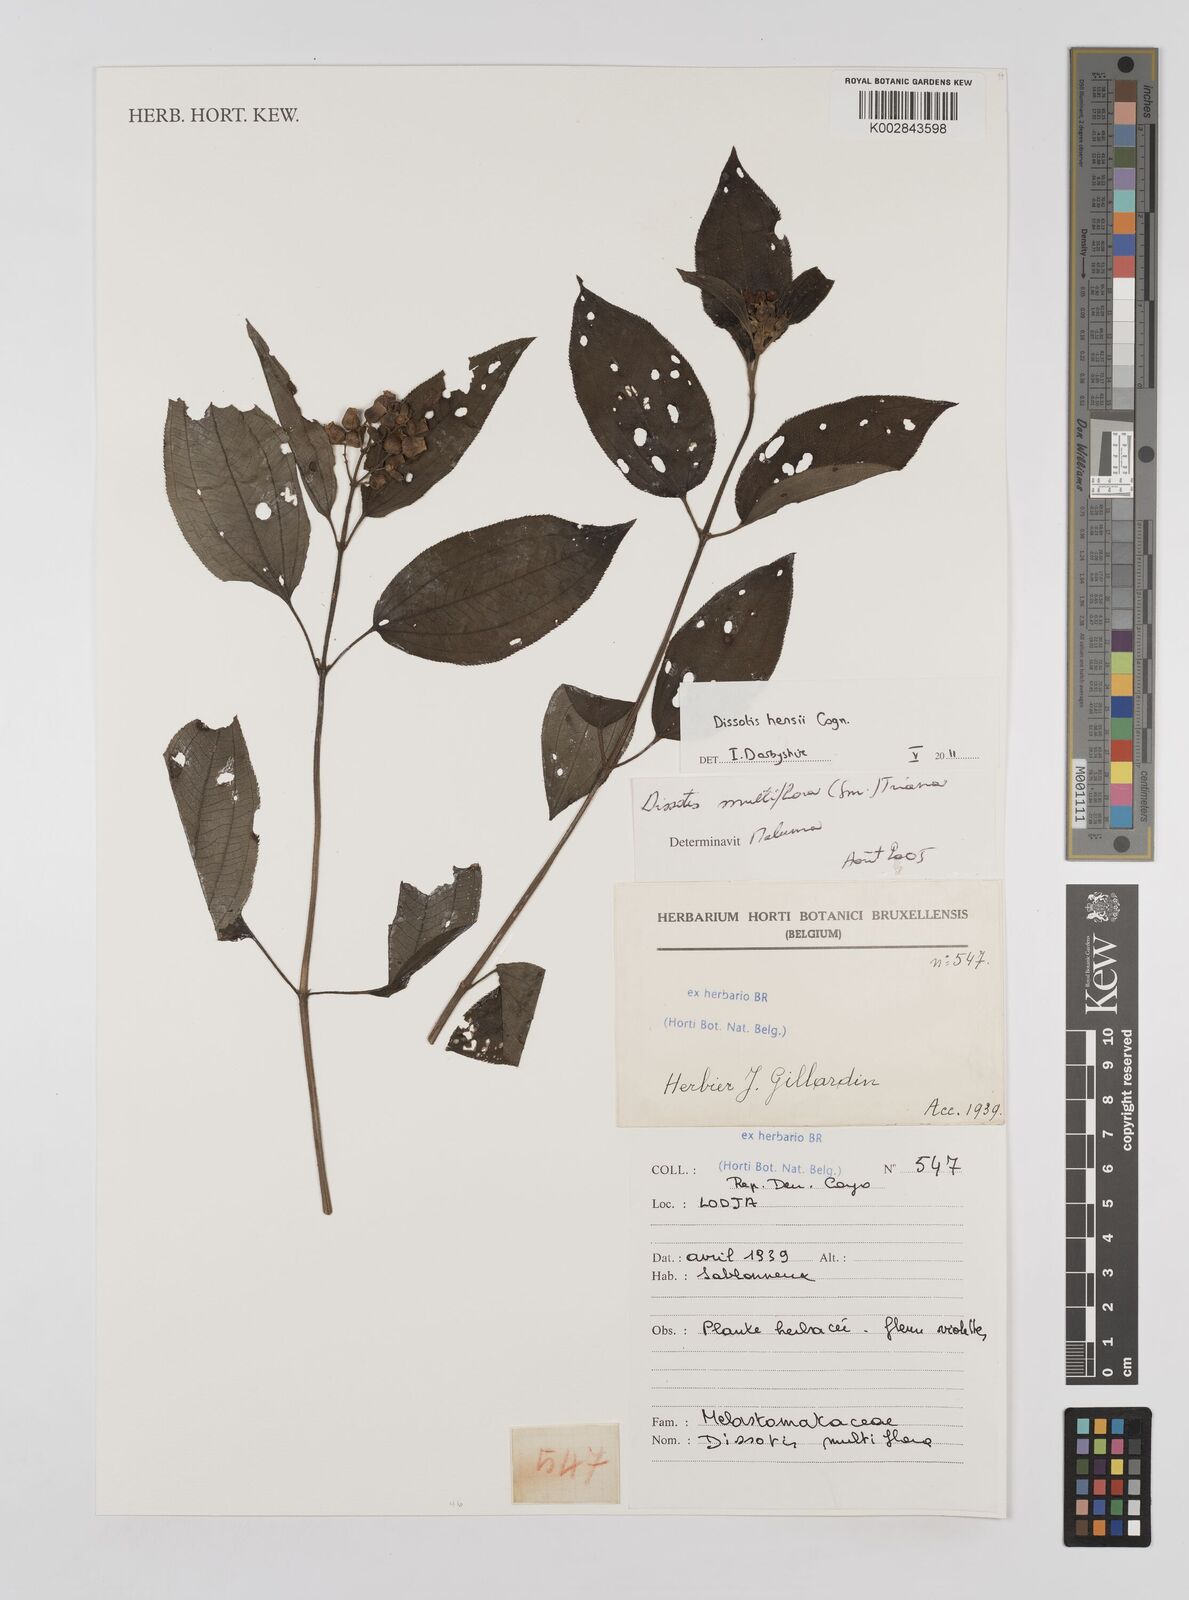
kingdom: Plantae
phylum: Tracheophyta
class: Magnoliopsida
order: Myrtales
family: Melastomataceae
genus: Dupineta
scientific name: Dupineta hensii
